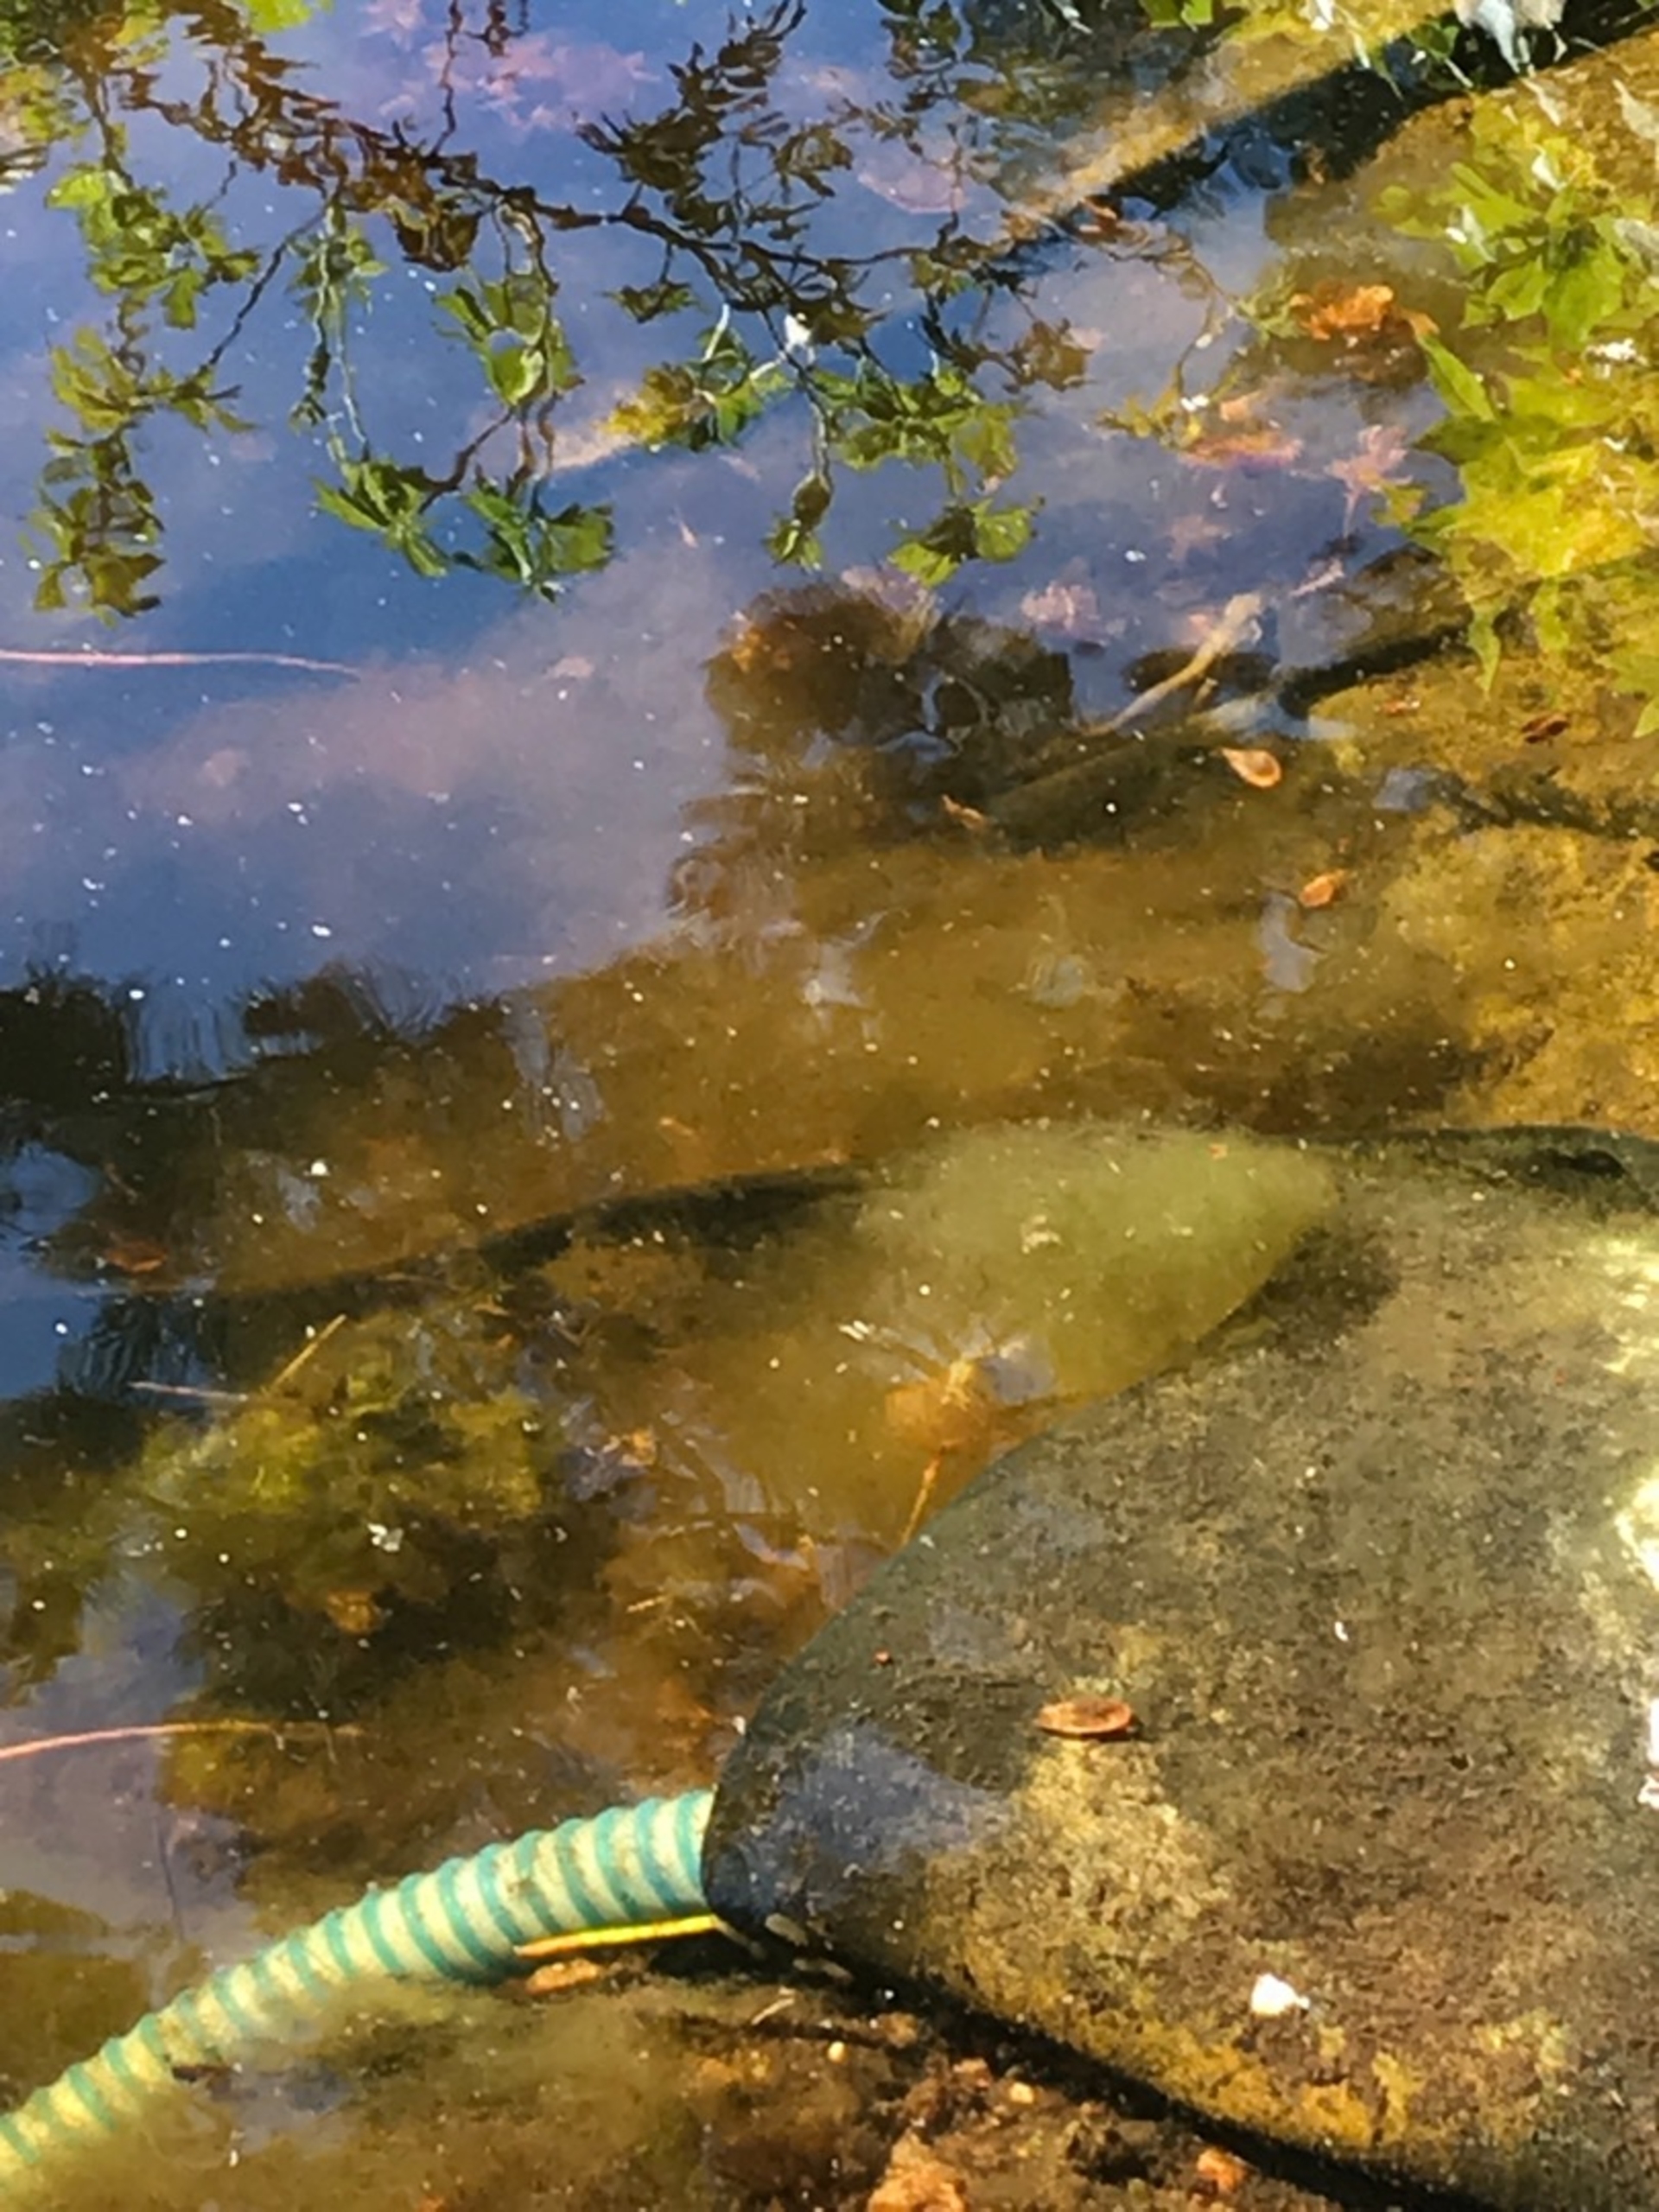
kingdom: Animalia
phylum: Chordata
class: Amphibia
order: Caudata
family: Salamandridae
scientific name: Salamandridae
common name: Egentlige salamandre
